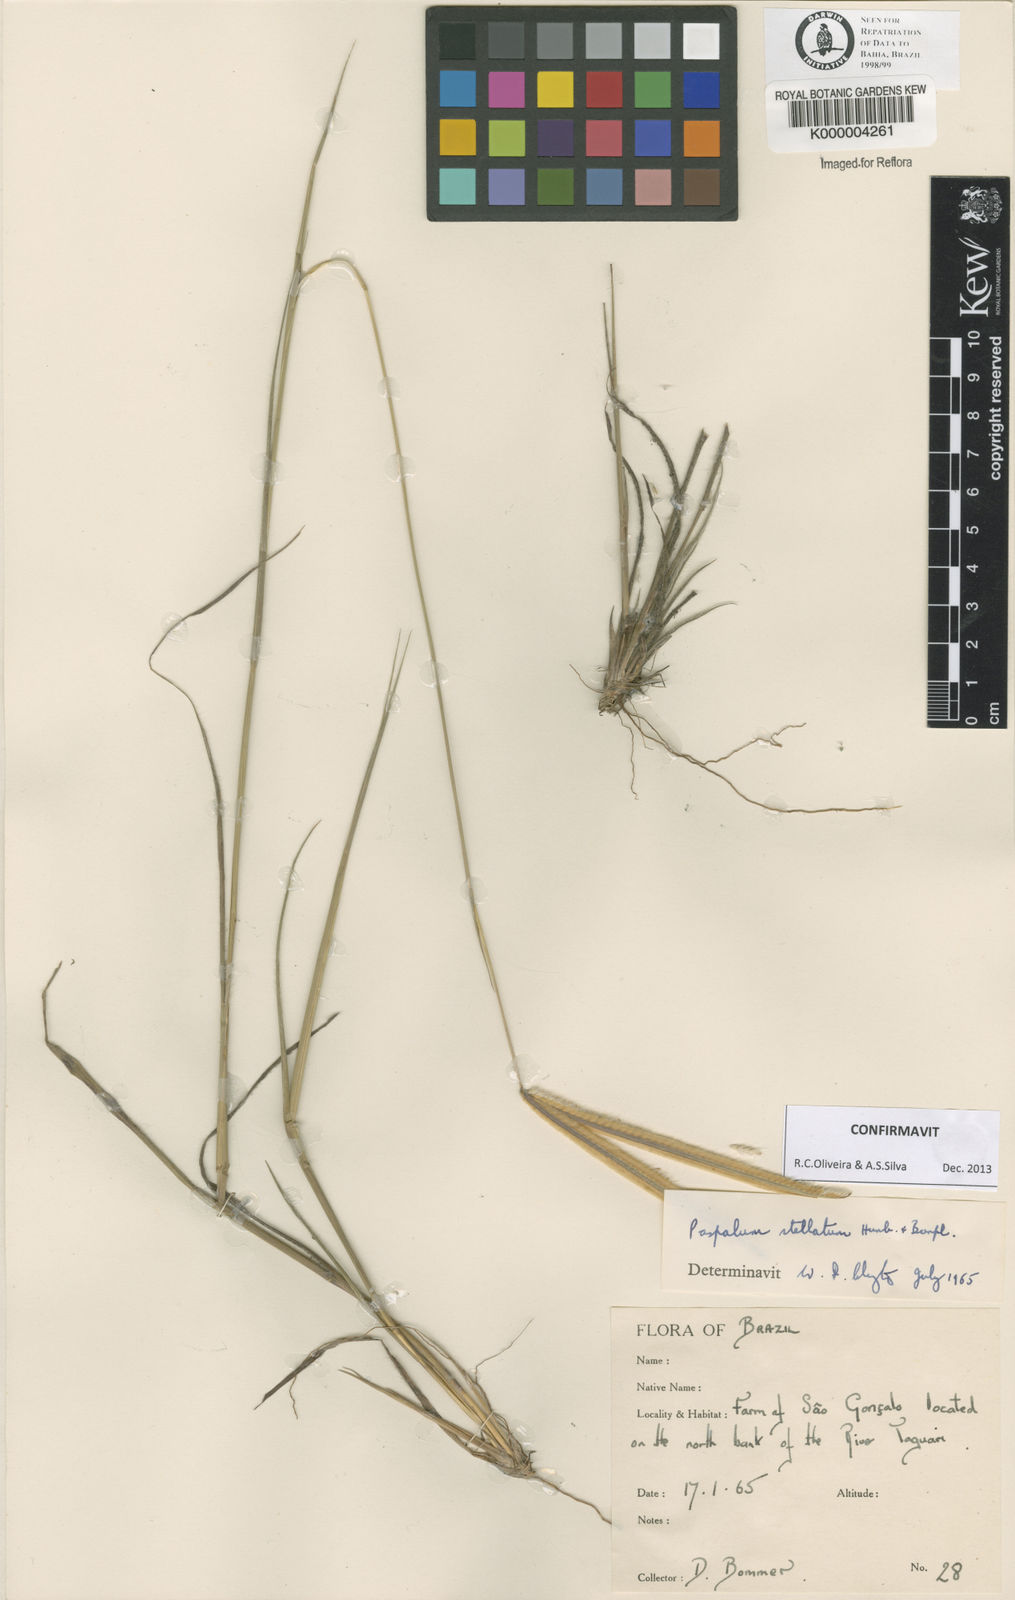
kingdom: Plantae
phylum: Tracheophyta
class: Liliopsida
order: Poales
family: Poaceae
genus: Paspalum
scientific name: Paspalum
